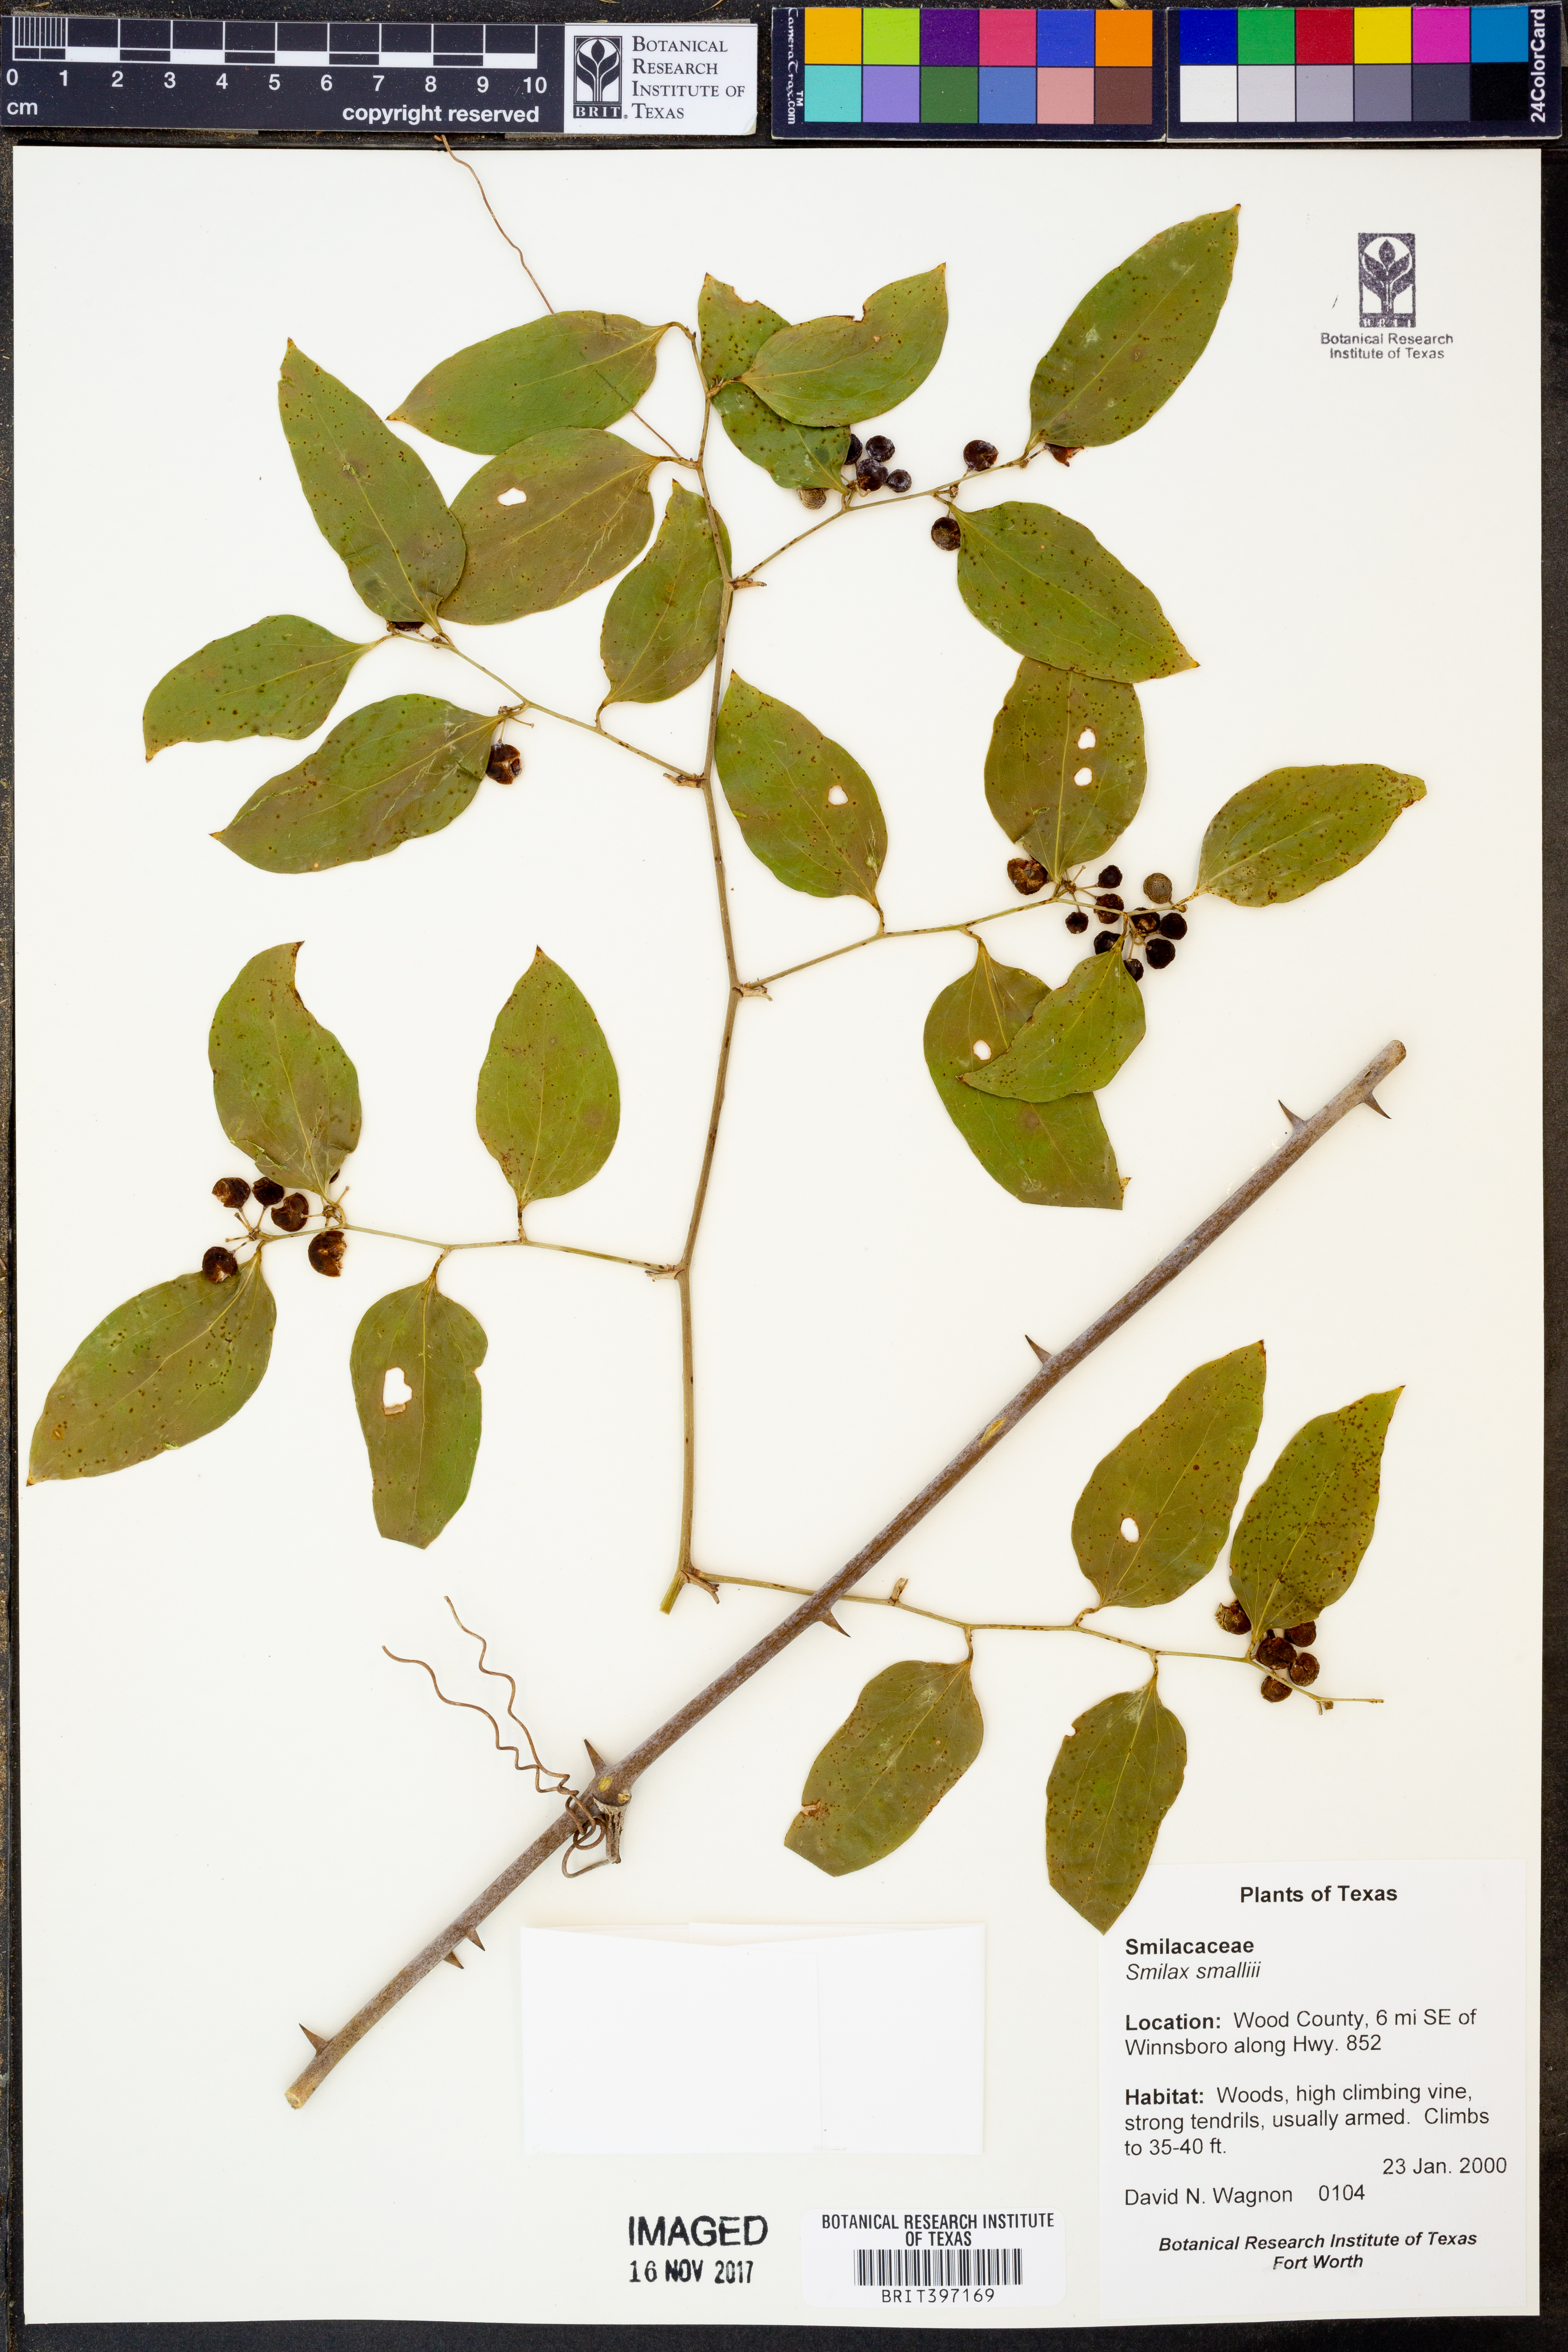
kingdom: Plantae
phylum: Tracheophyta
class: Liliopsida
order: Liliales
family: Smilacaceae
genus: Smilax
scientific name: Smilax maritima
